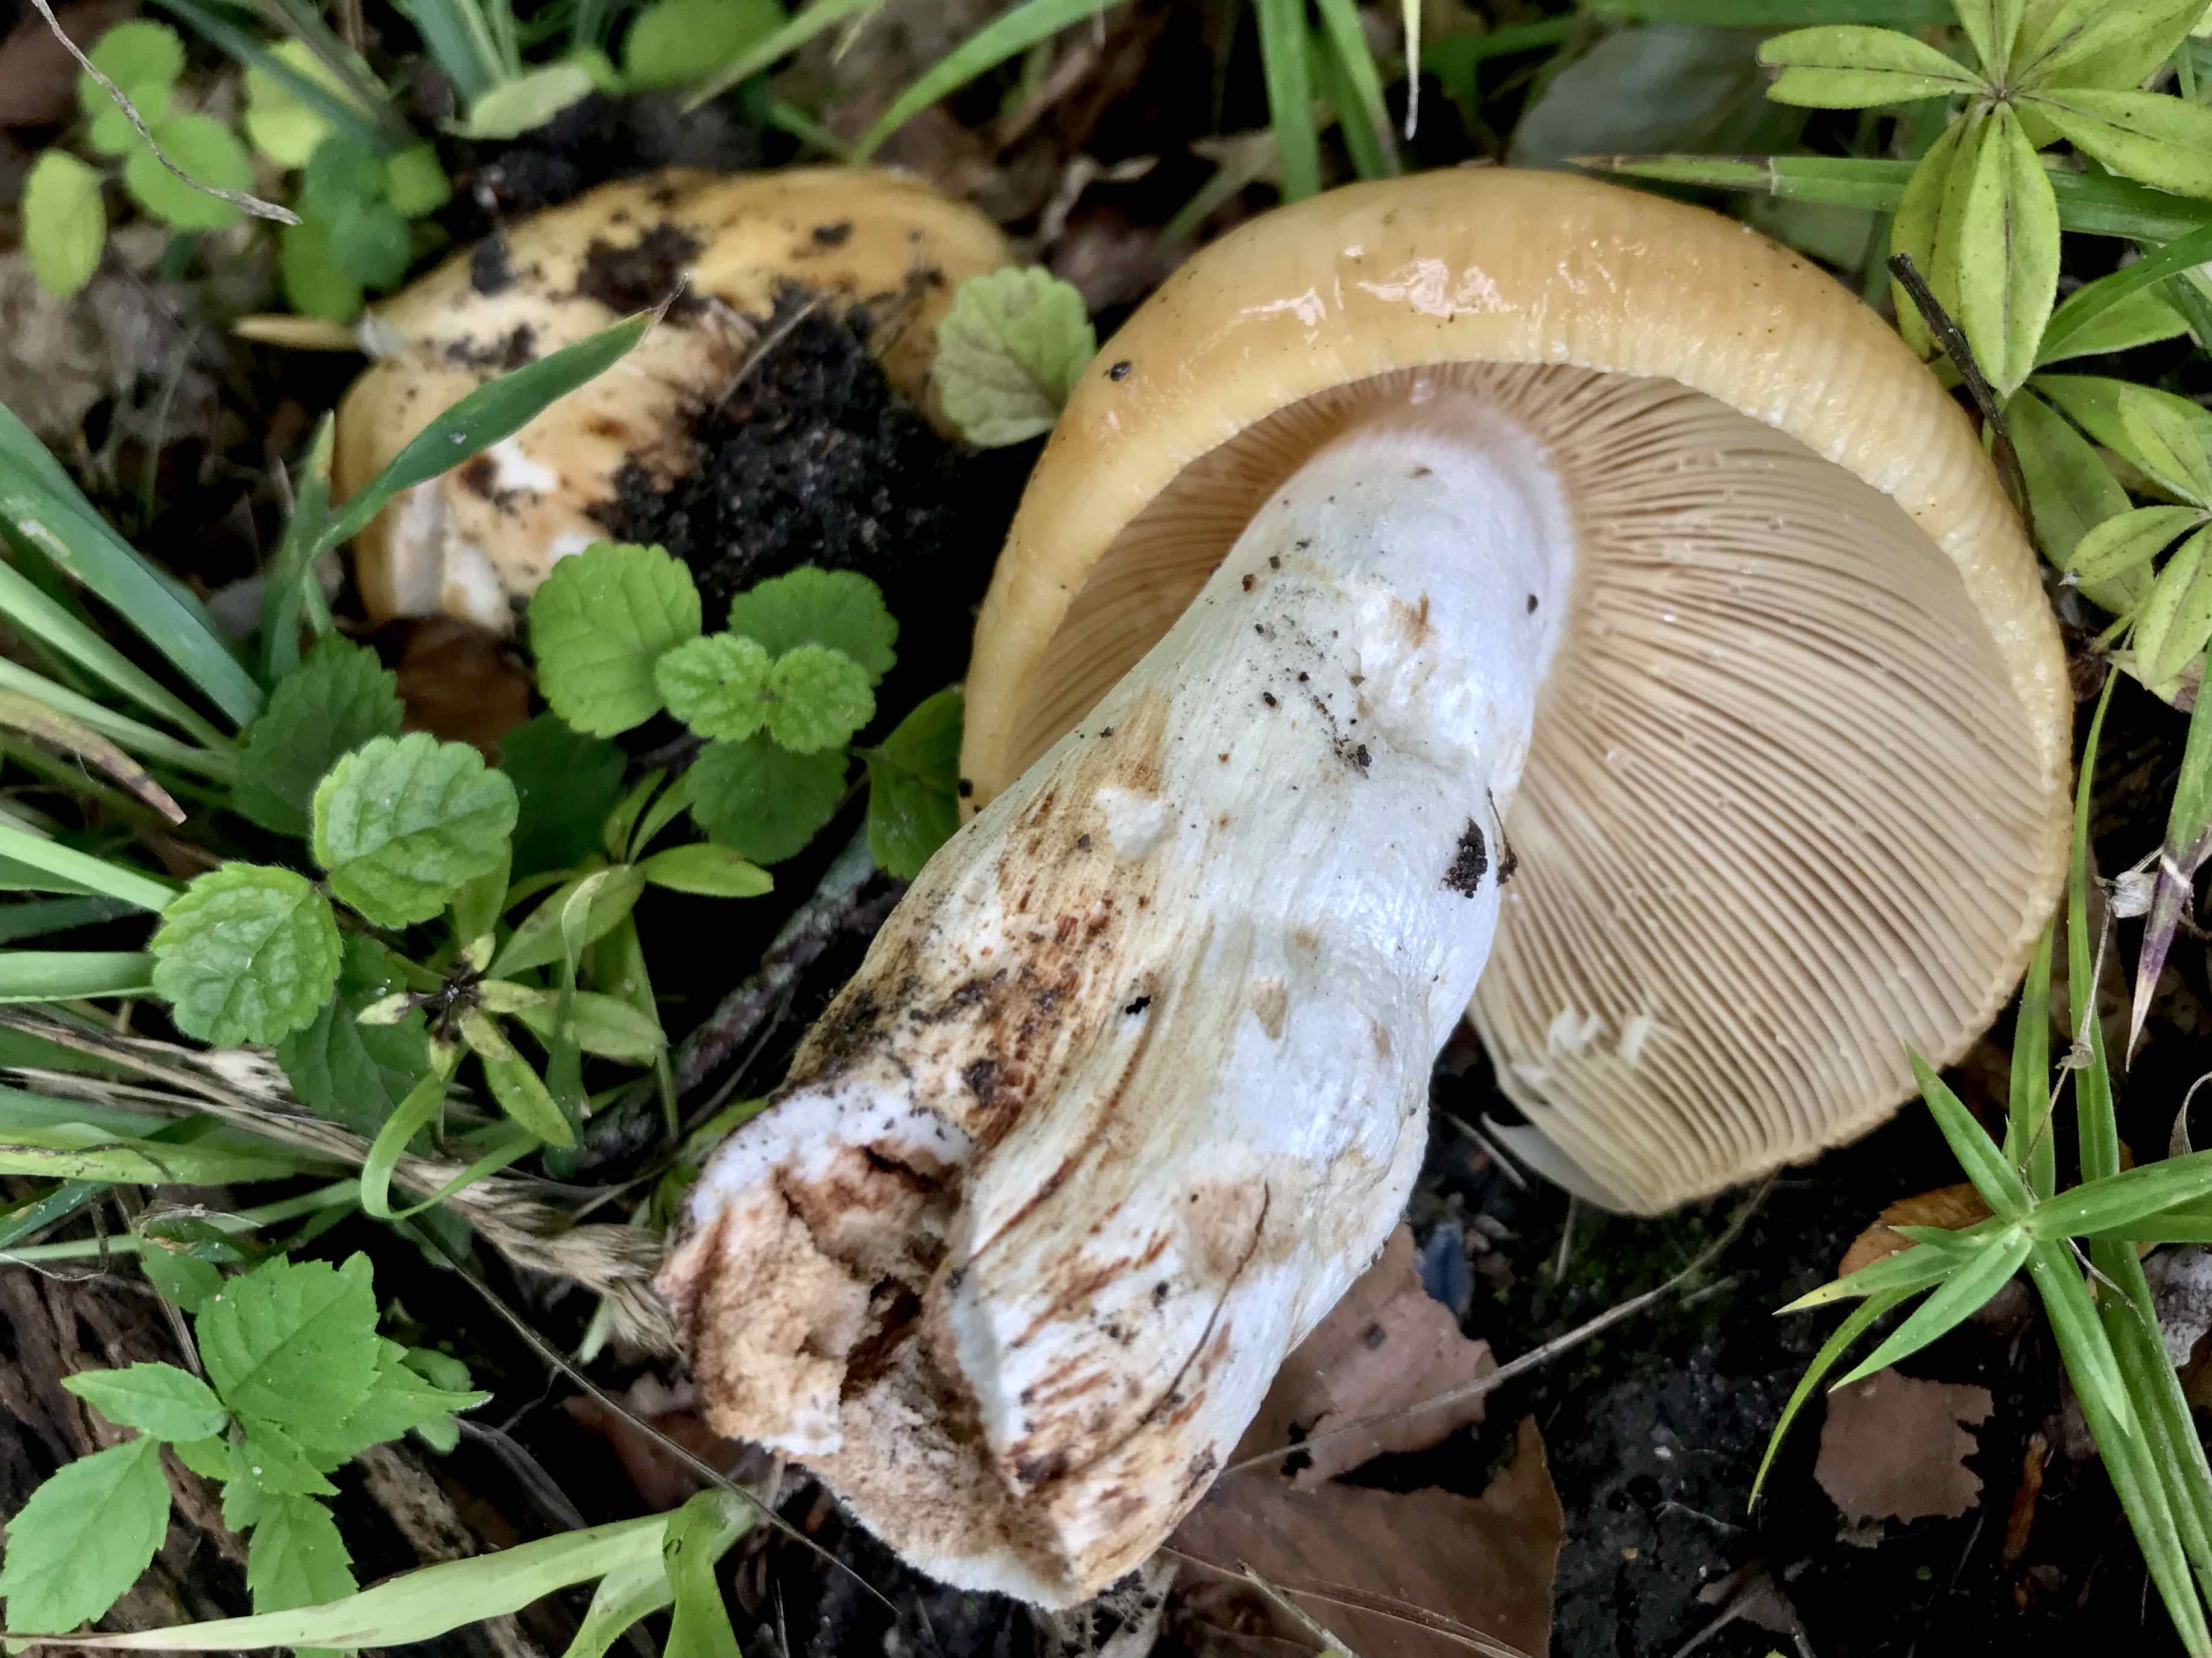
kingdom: Fungi
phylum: Basidiomycota
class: Agaricomycetes
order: Russulales
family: Russulaceae
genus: Russula
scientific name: Russula foetens
